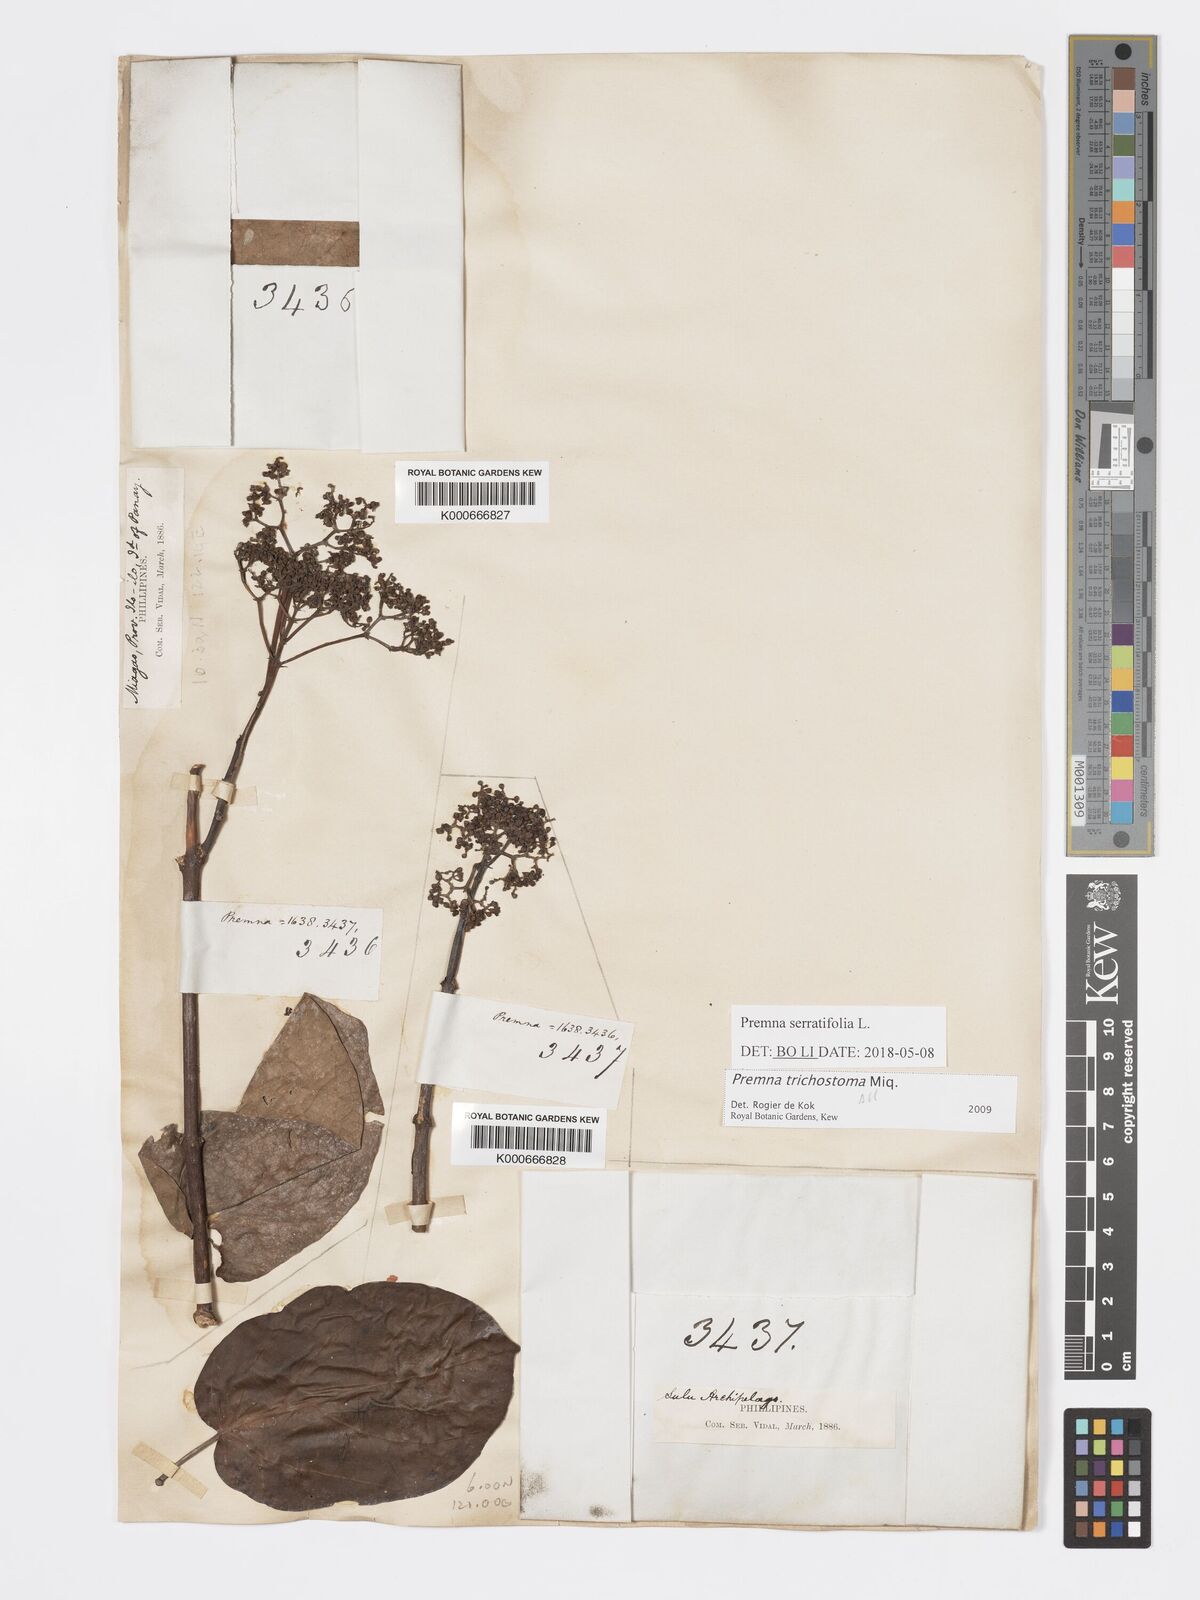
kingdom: Plantae
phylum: Tracheophyta
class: Magnoliopsida
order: Lamiales
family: Lamiaceae
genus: Premna
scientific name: Premna trichostoma
